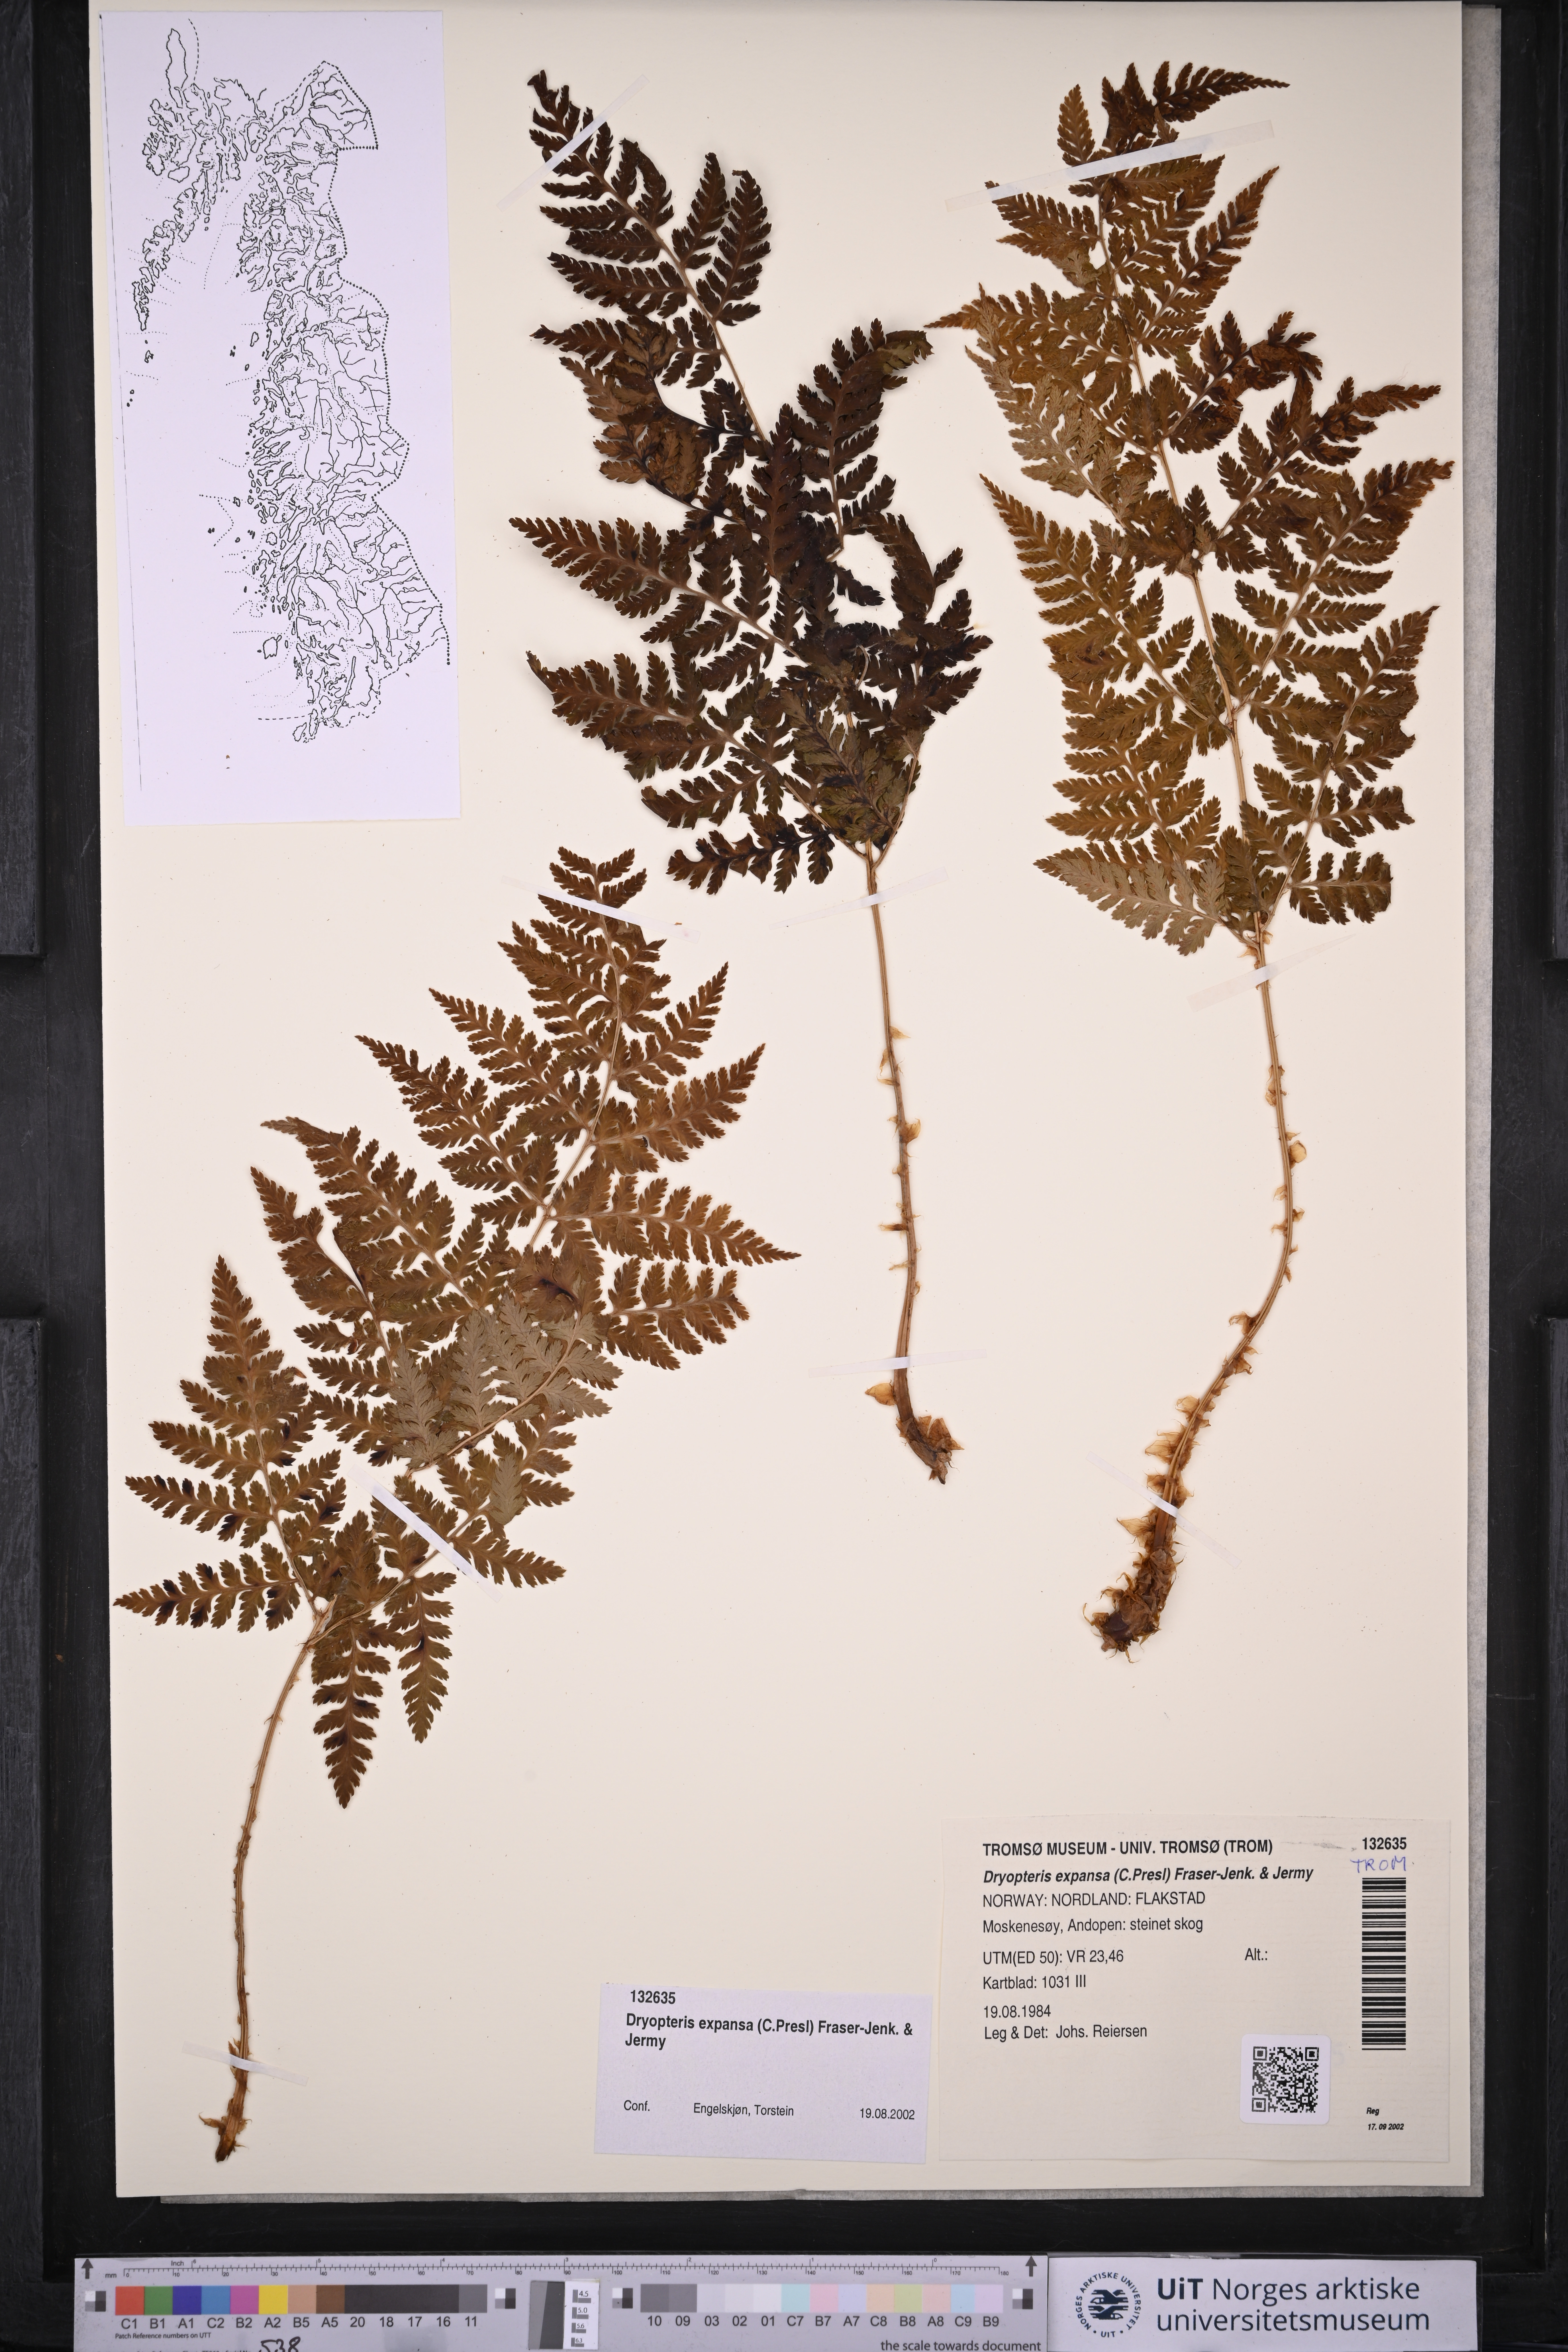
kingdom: Plantae
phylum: Tracheophyta
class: Polypodiopsida
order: Polypodiales
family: Dryopteridaceae
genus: Dryopteris
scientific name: Dryopteris expansa
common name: Northern buckler fern
